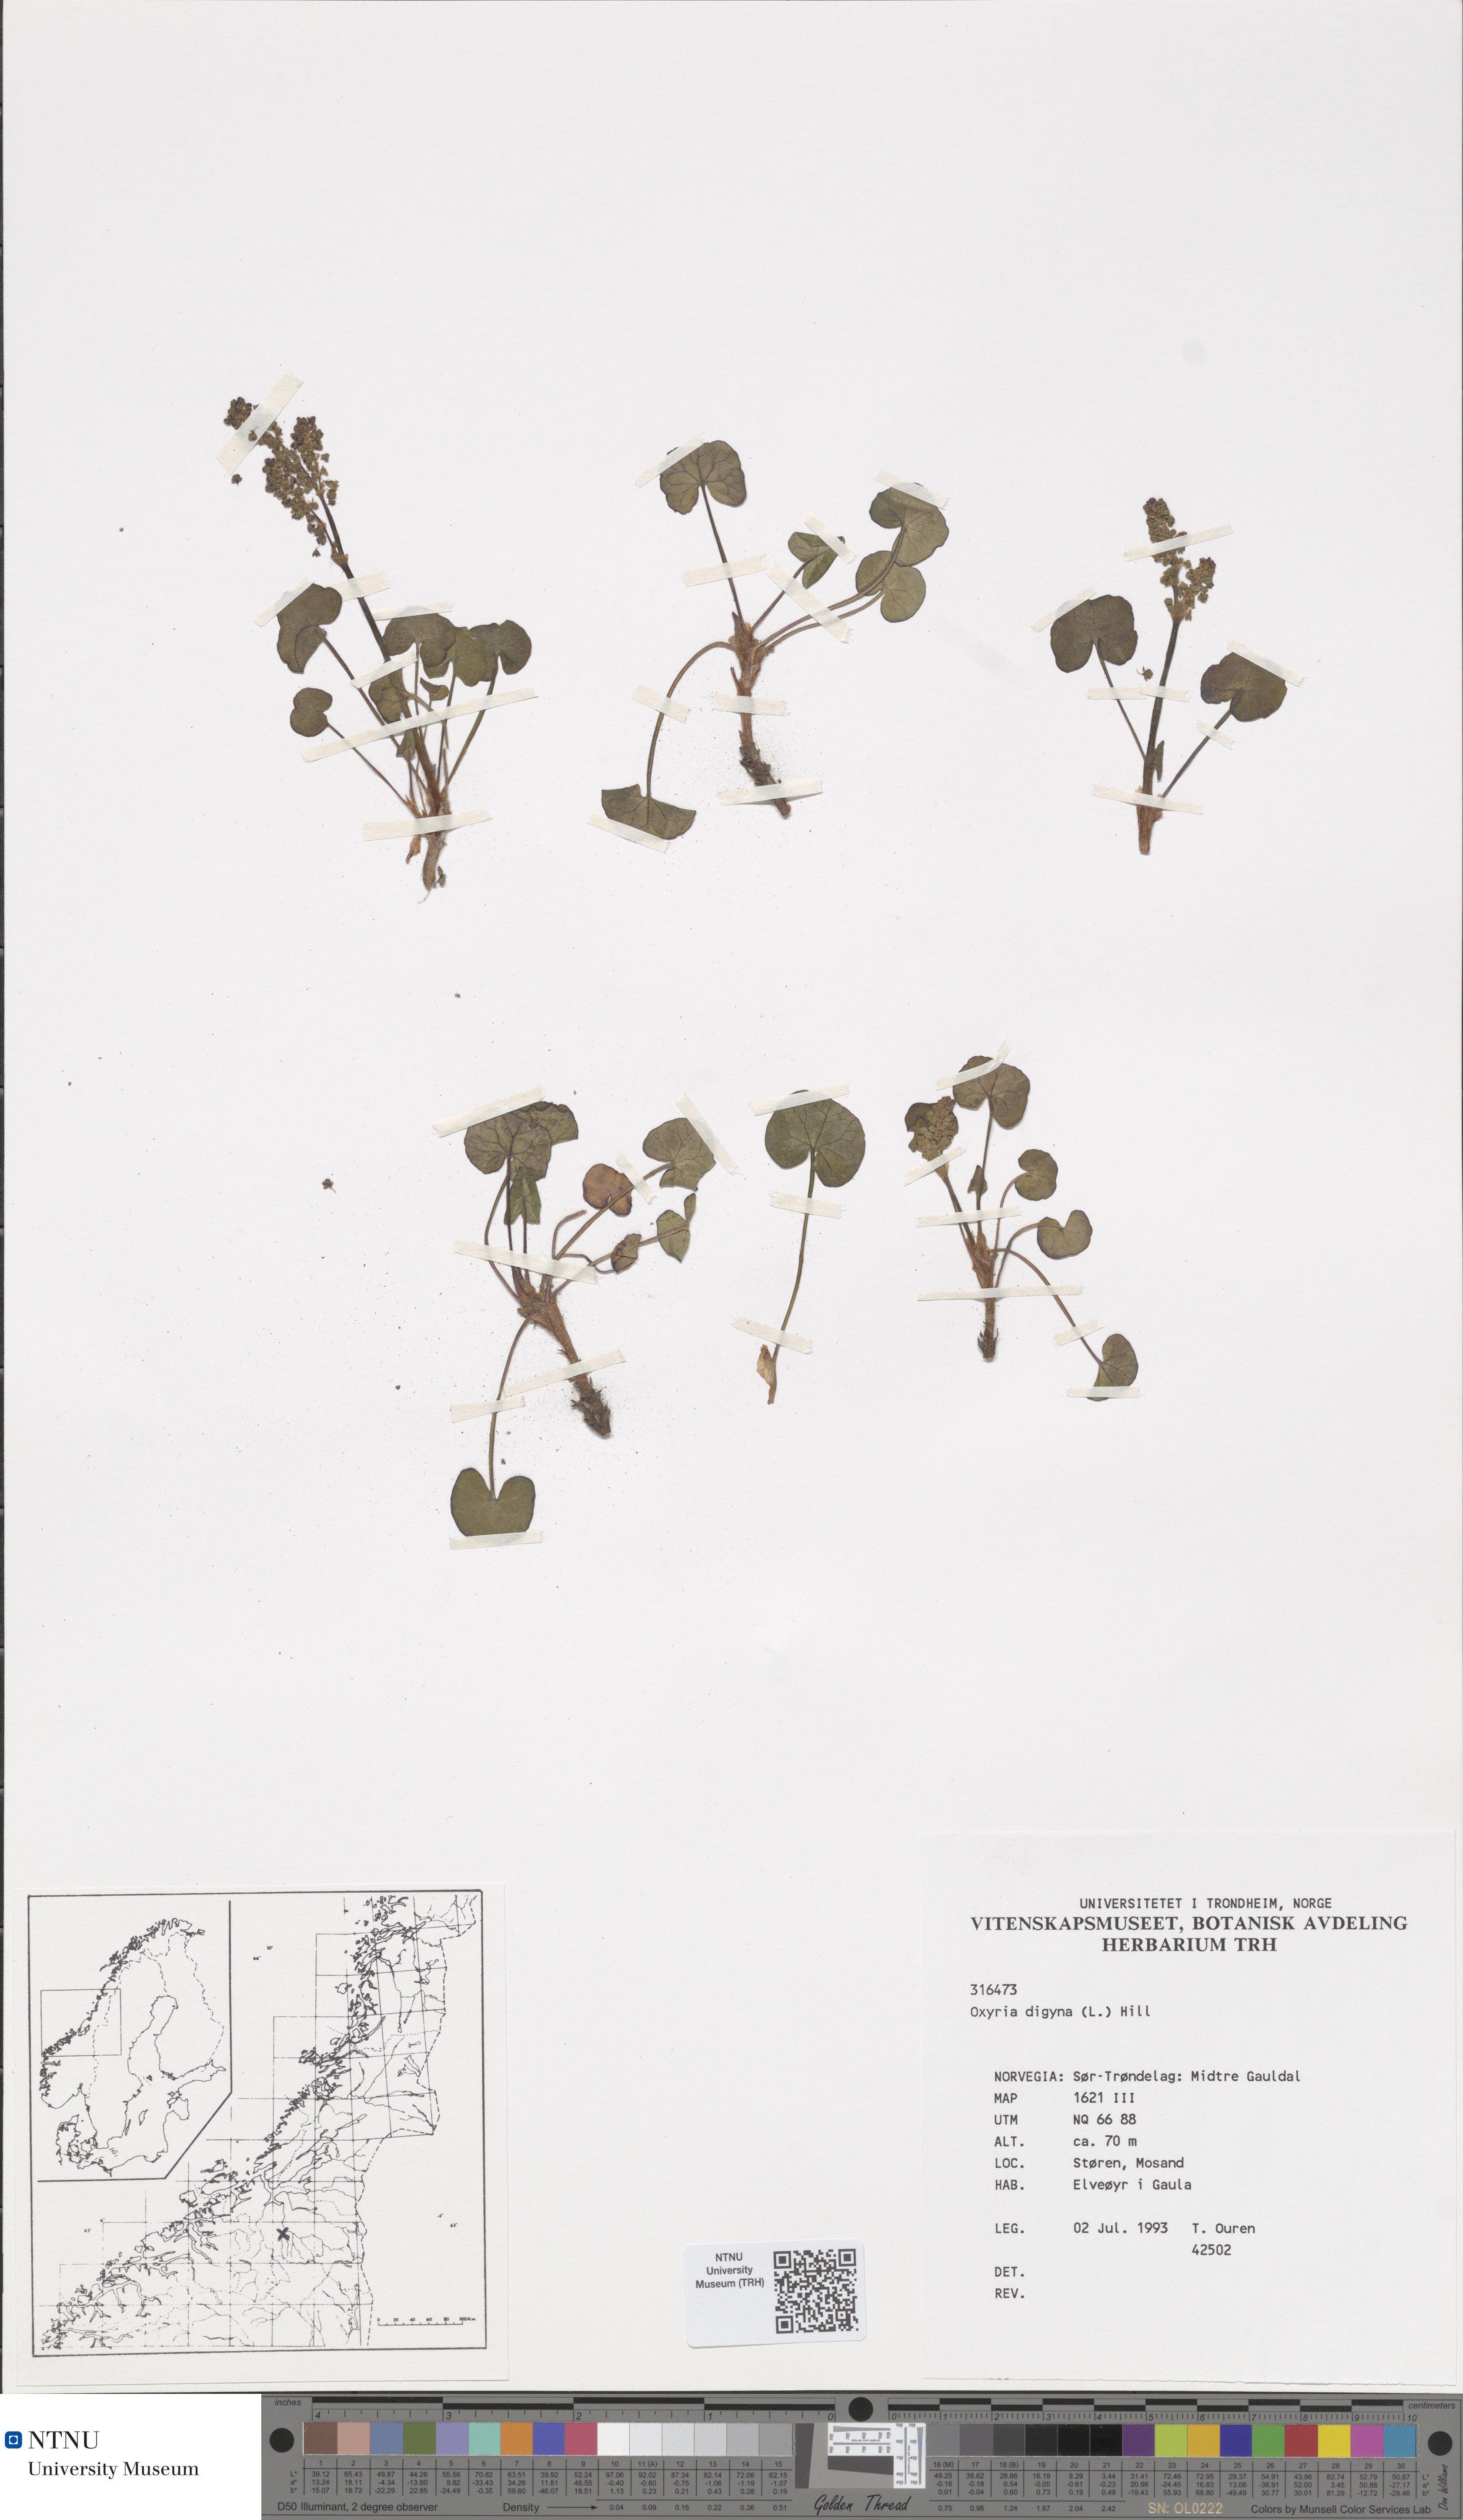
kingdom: Plantae
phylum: Tracheophyta
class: Magnoliopsida
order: Caryophyllales
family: Polygonaceae
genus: Oxyria
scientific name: Oxyria digyna
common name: Alpine mountain-sorrel
